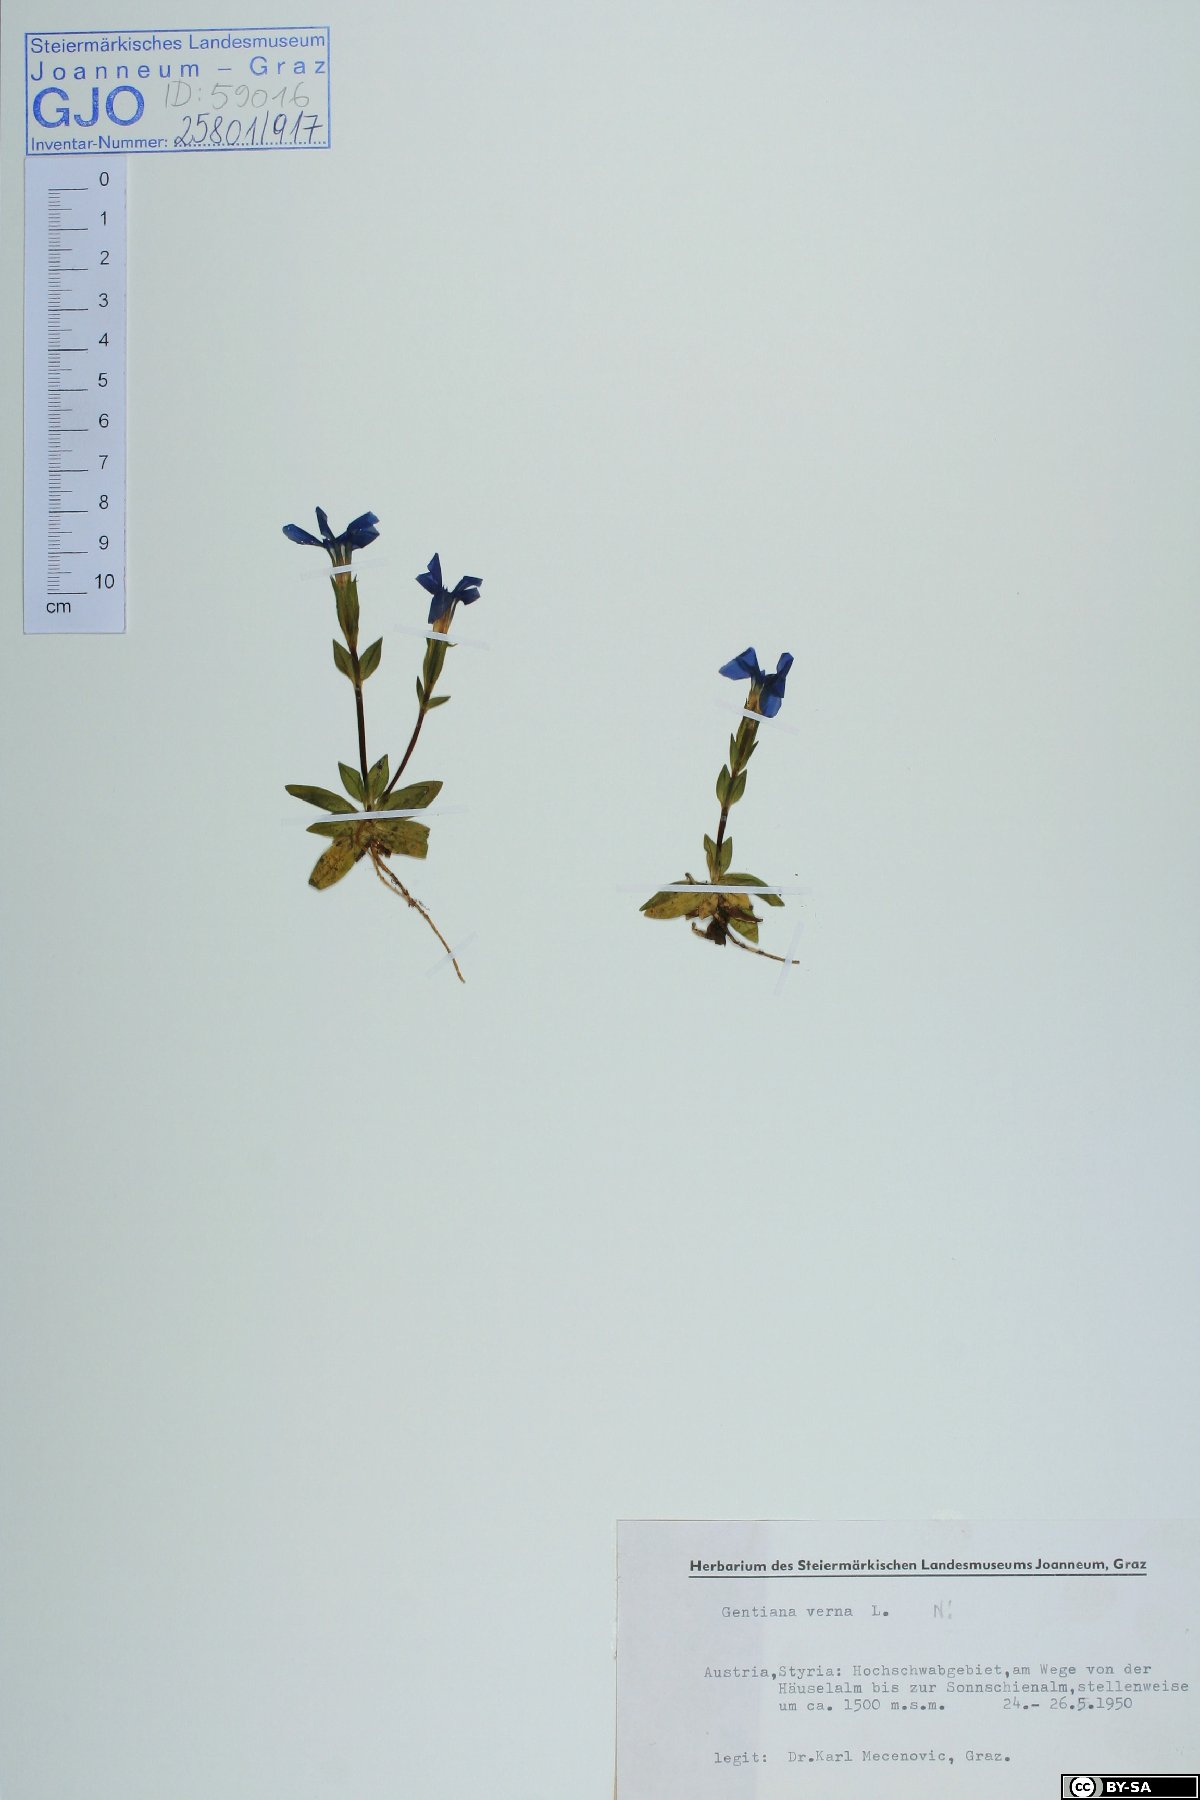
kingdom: Plantae
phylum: Tracheophyta
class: Magnoliopsida
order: Gentianales
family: Gentianaceae
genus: Gentiana
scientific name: Gentiana verna
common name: Spring gentian
